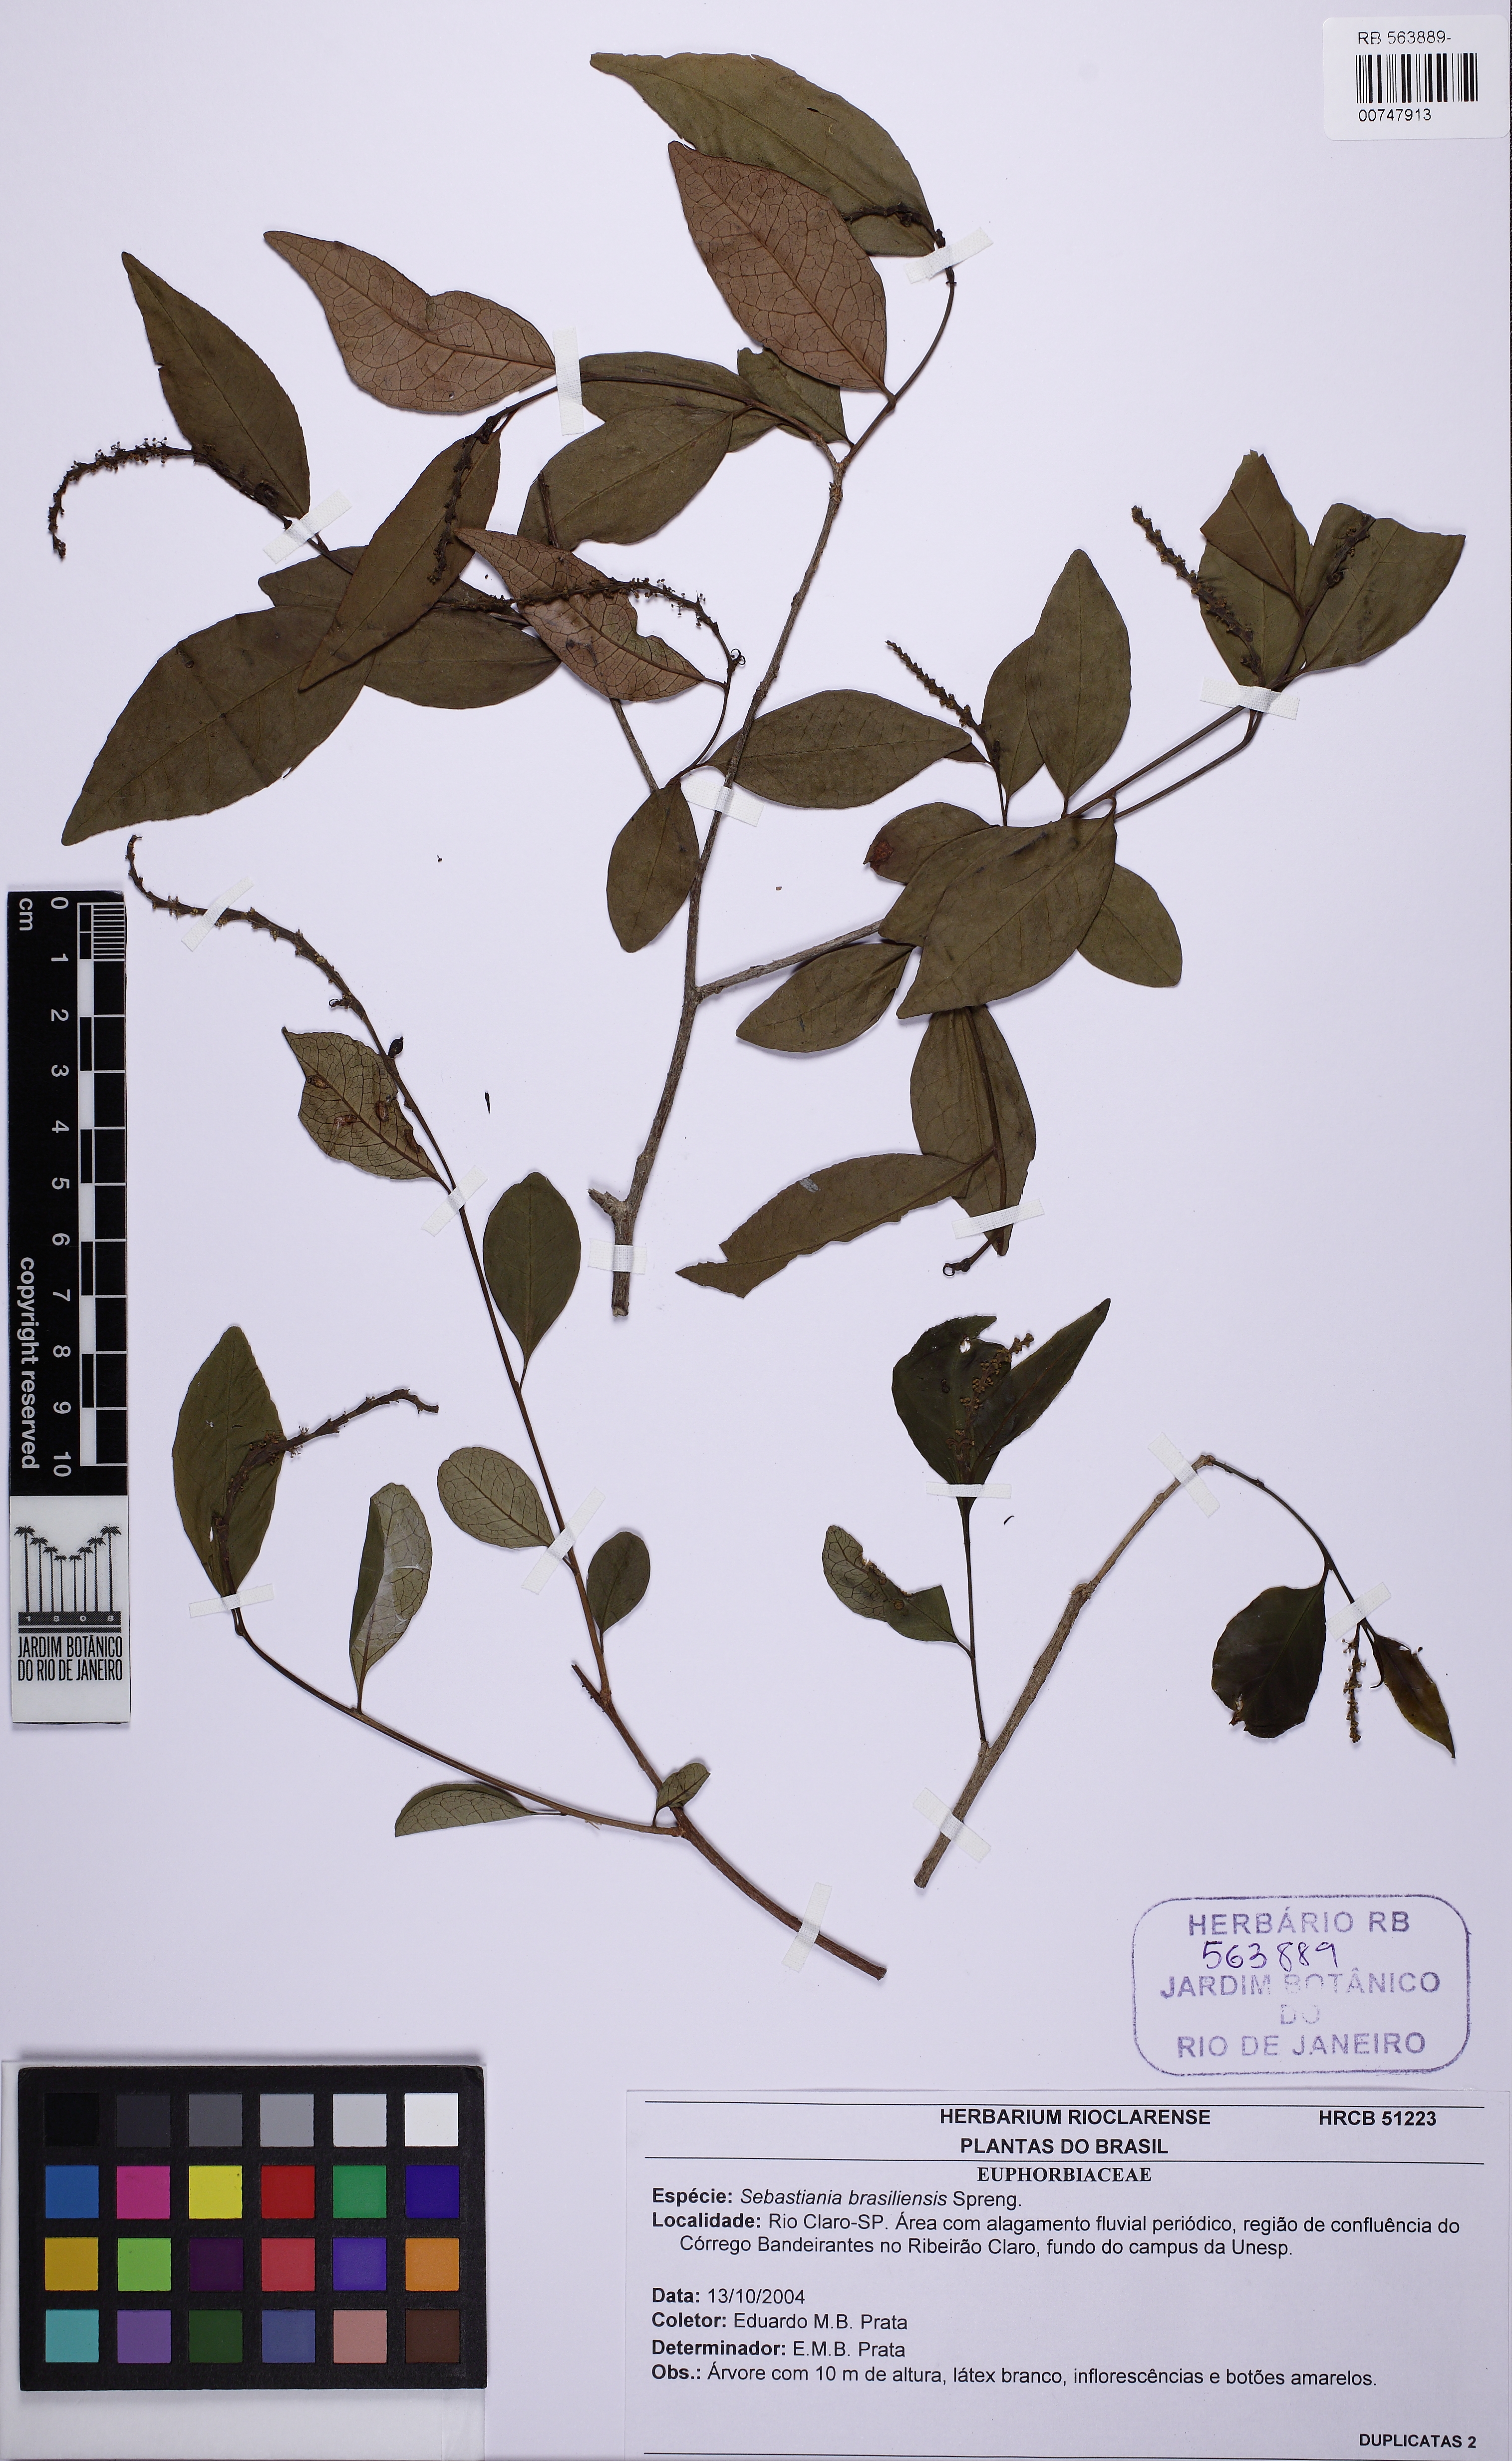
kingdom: Plantae
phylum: Tracheophyta
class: Magnoliopsida
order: Malpighiales
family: Euphorbiaceae
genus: Sebastiania
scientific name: Sebastiania brasiliensis
